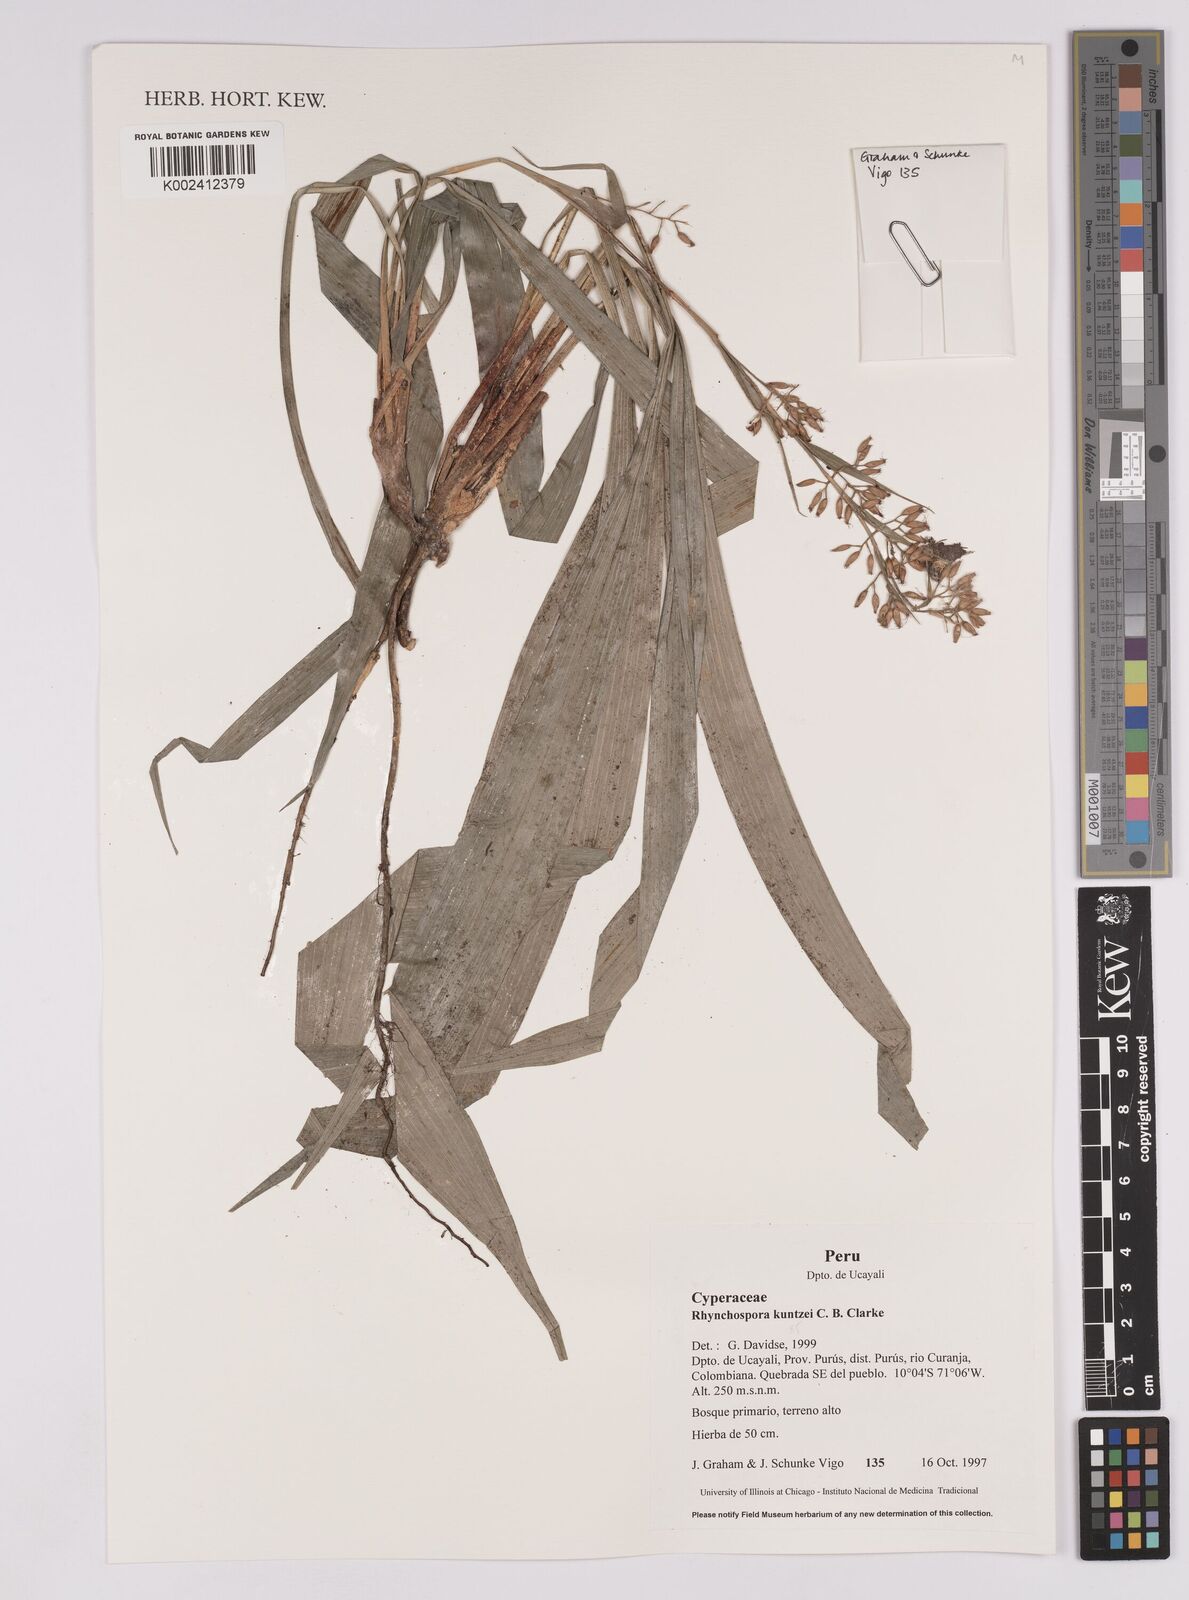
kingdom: Plantae
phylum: Tracheophyta
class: Liliopsida
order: Poales
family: Cyperaceae
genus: Rhynchospora
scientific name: Rhynchospora umbraticola
